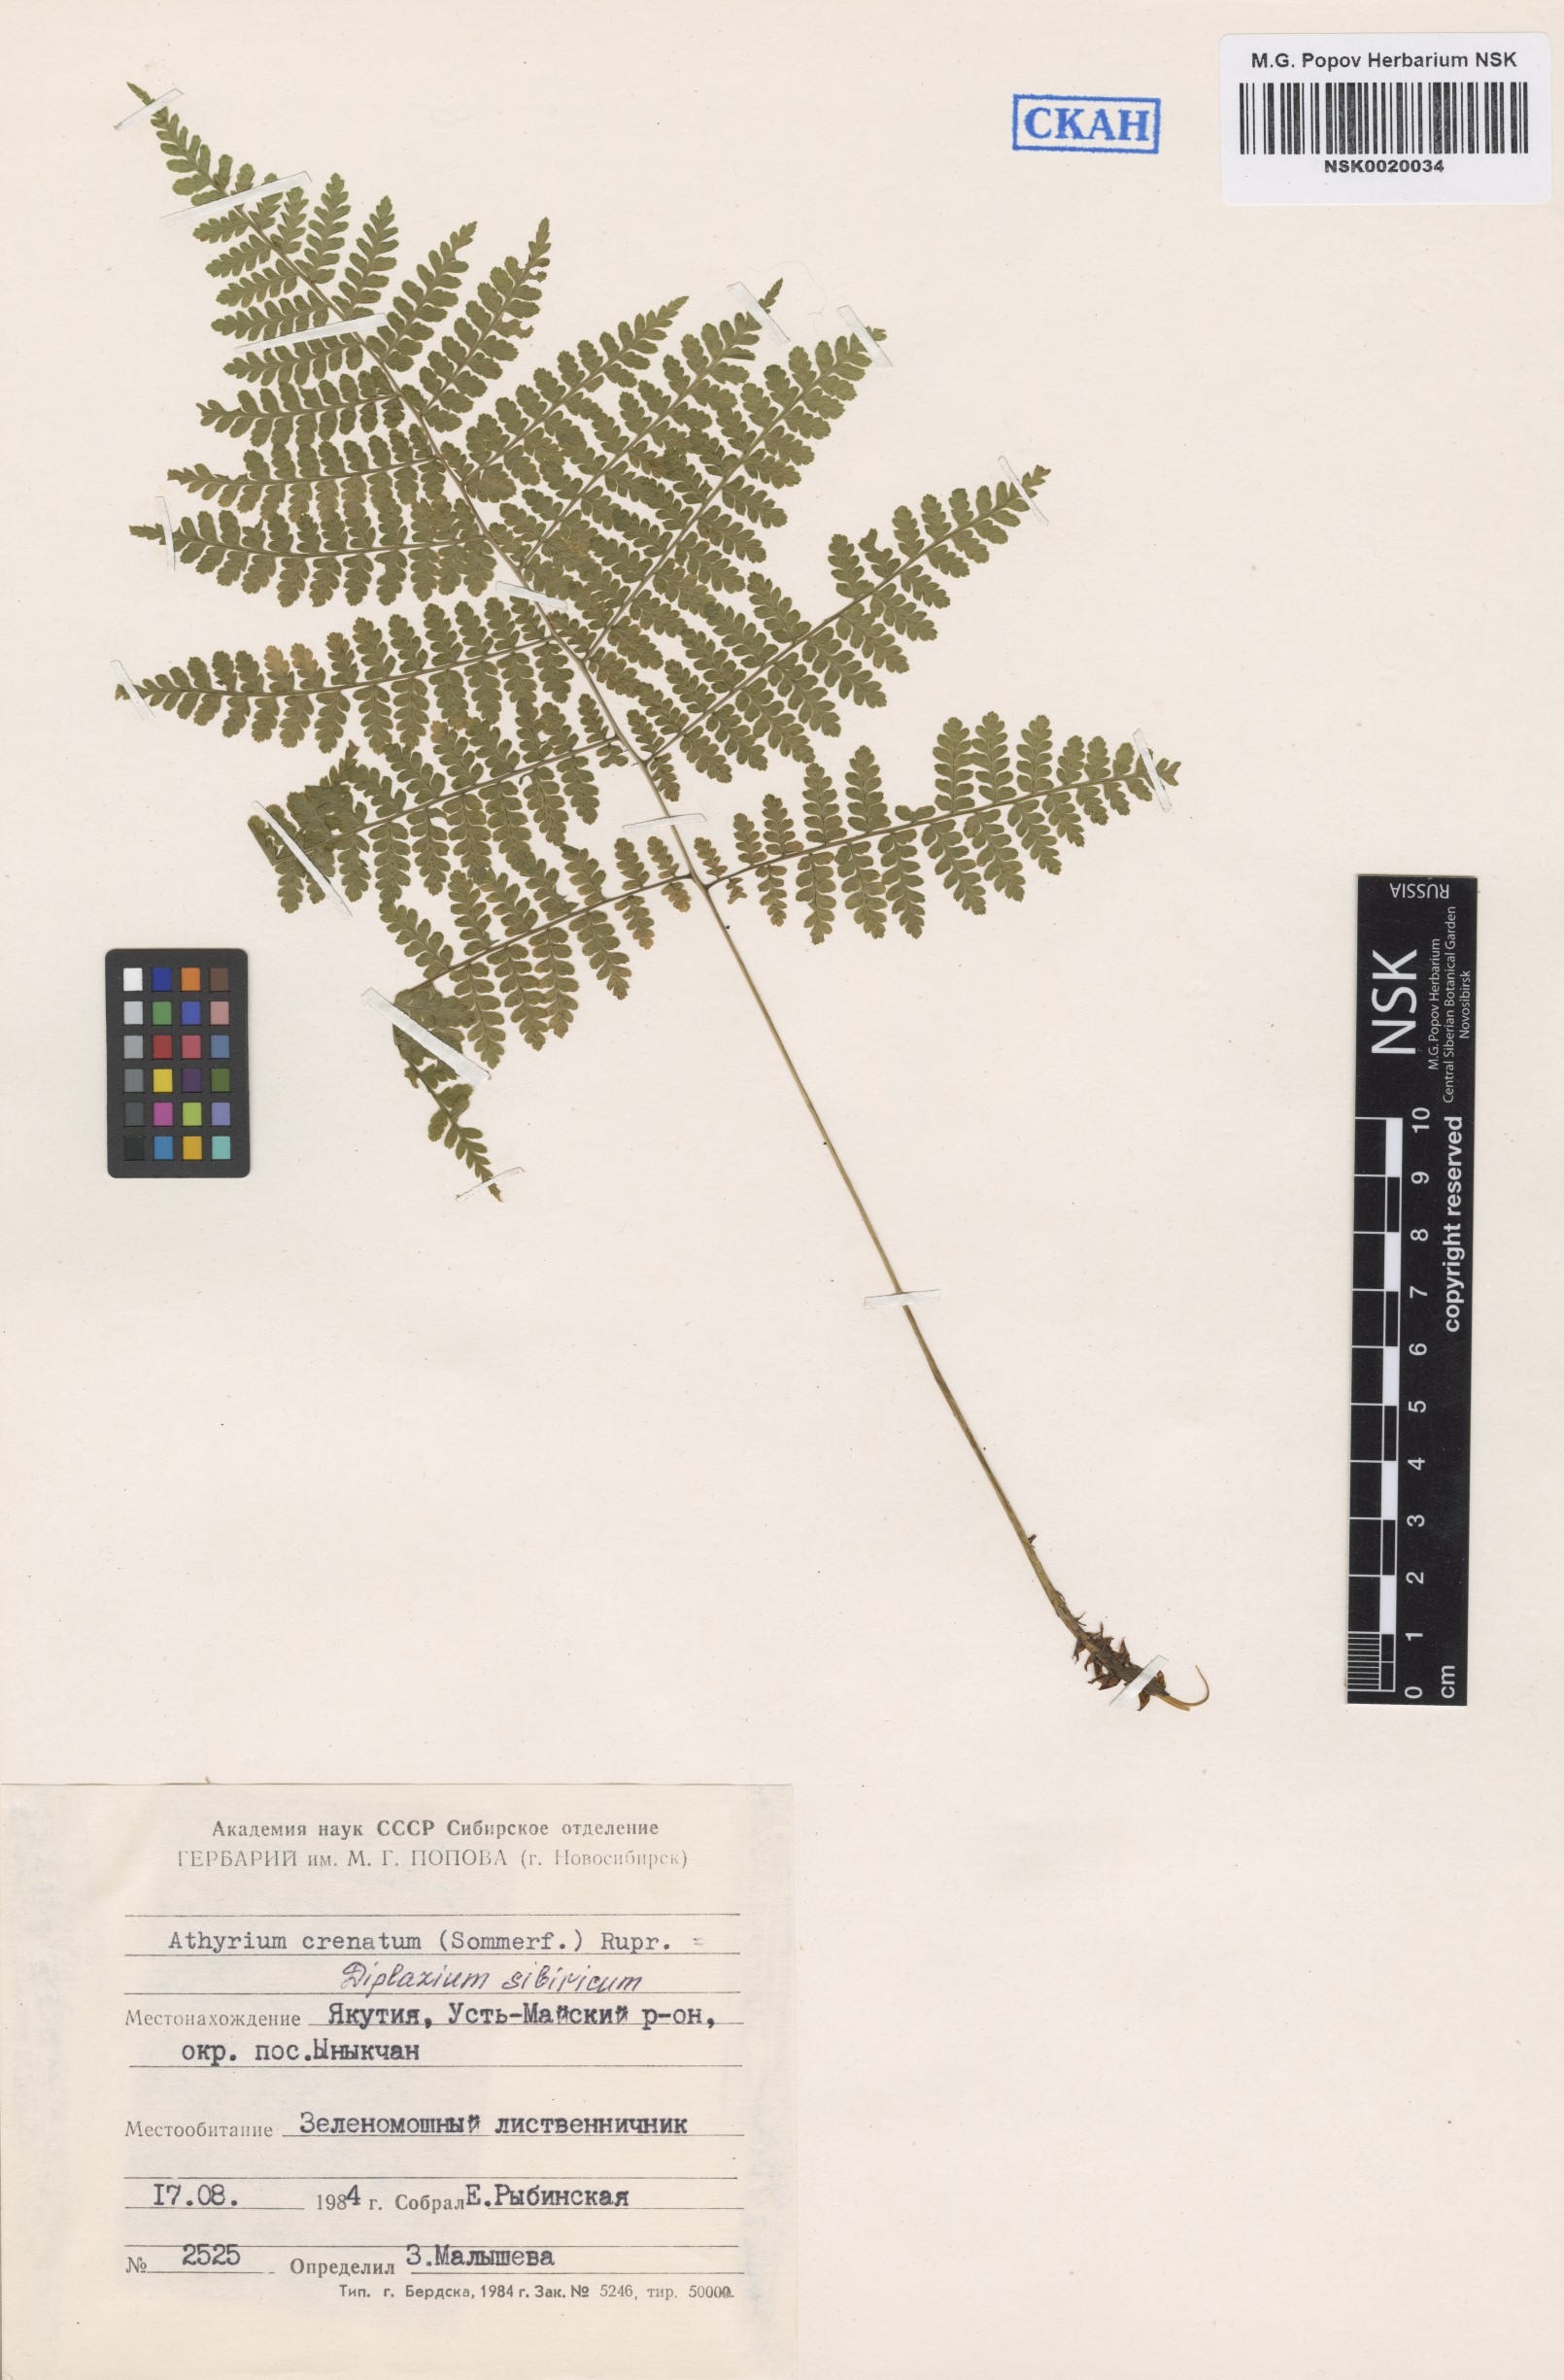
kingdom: Plantae
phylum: Tracheophyta
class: Polypodiopsida
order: Polypodiales
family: Athyriaceae
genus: Diplazium
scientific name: Diplazium sibiricum
